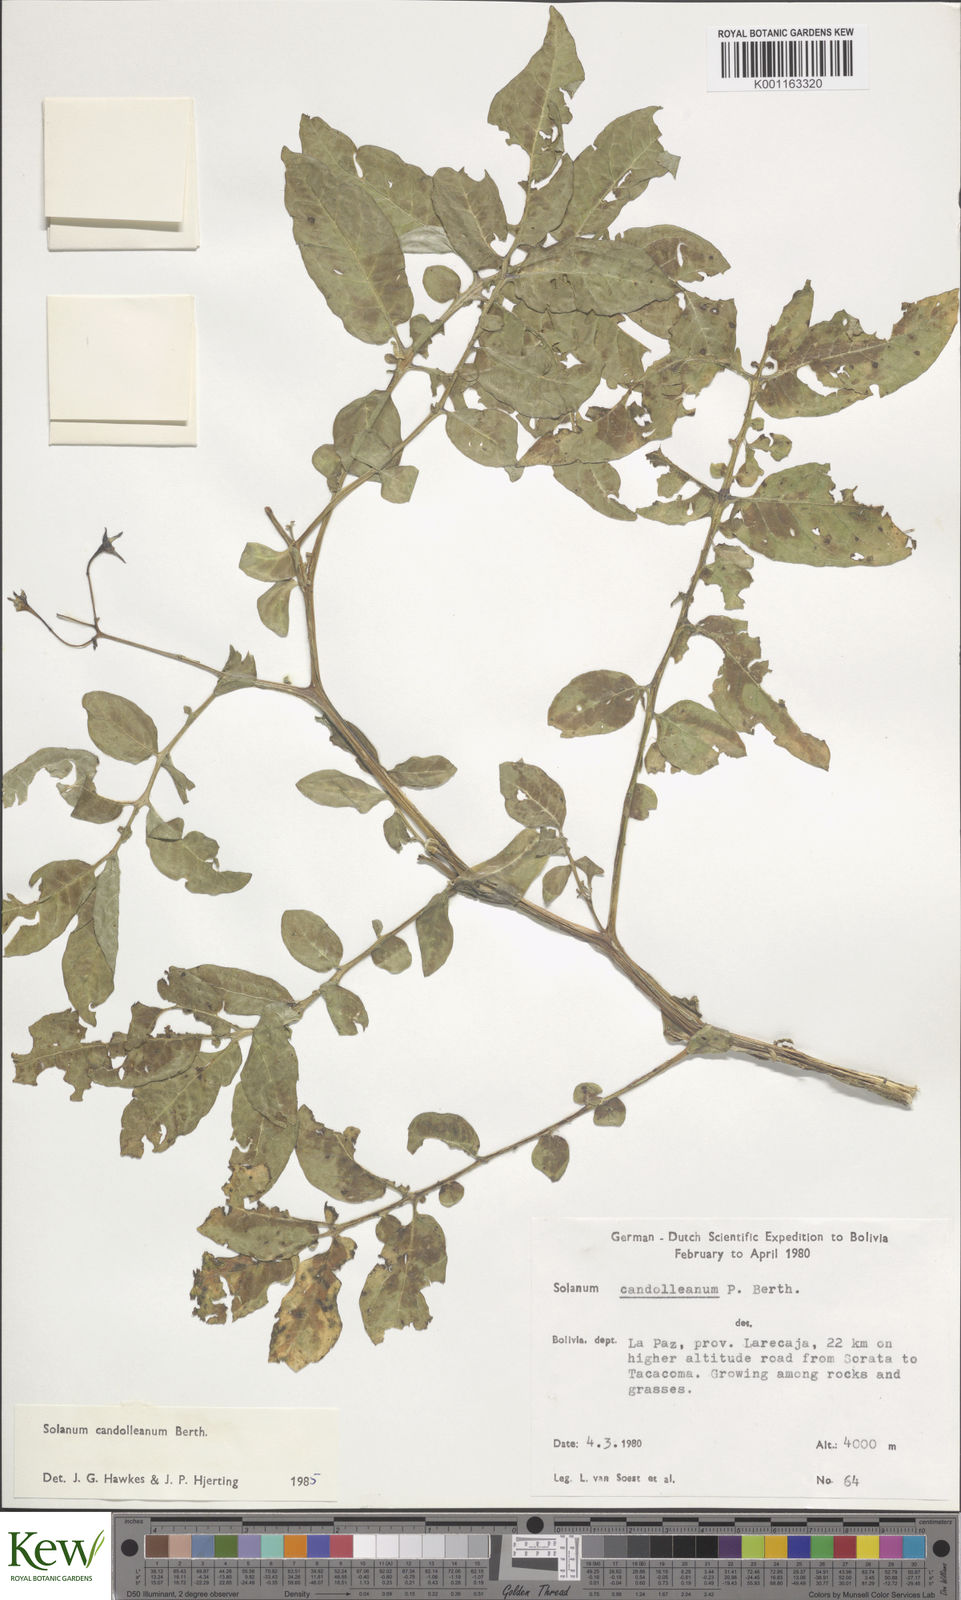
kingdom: Plantae
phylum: Tracheophyta
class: Magnoliopsida
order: Solanales
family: Solanaceae
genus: Solanum
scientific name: Solanum candolleanum
